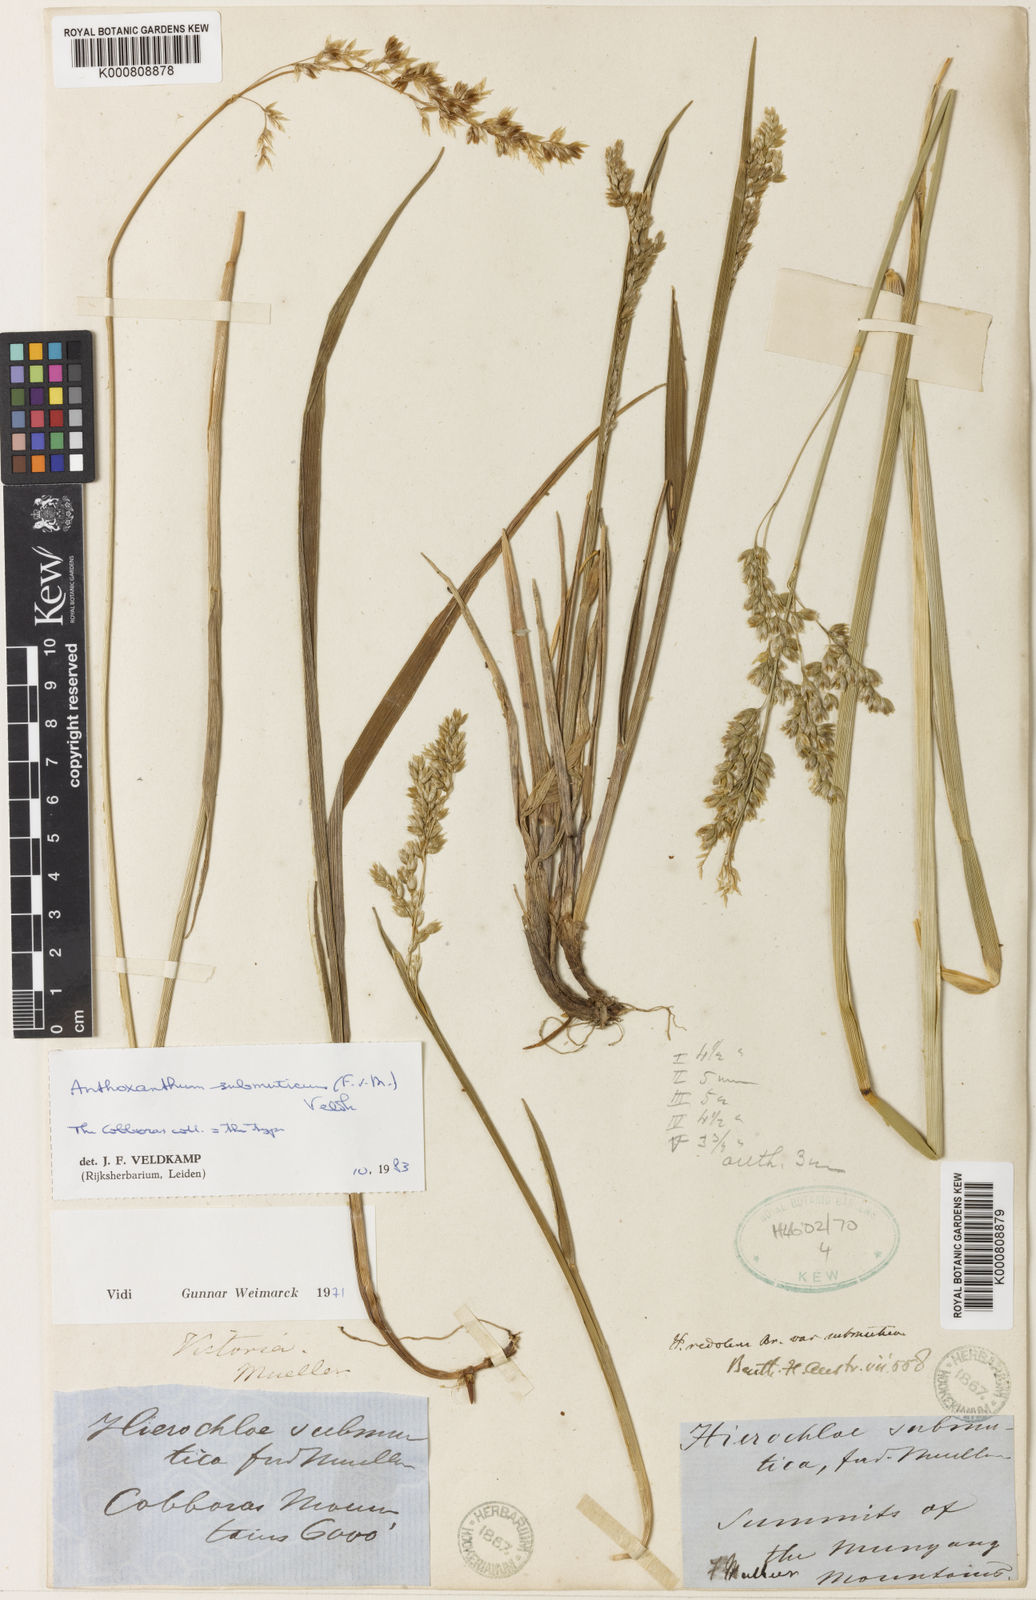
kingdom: Plantae
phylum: Tracheophyta
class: Liliopsida
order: Poales
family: Poaceae
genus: Hierochloe
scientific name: Hierochloe
